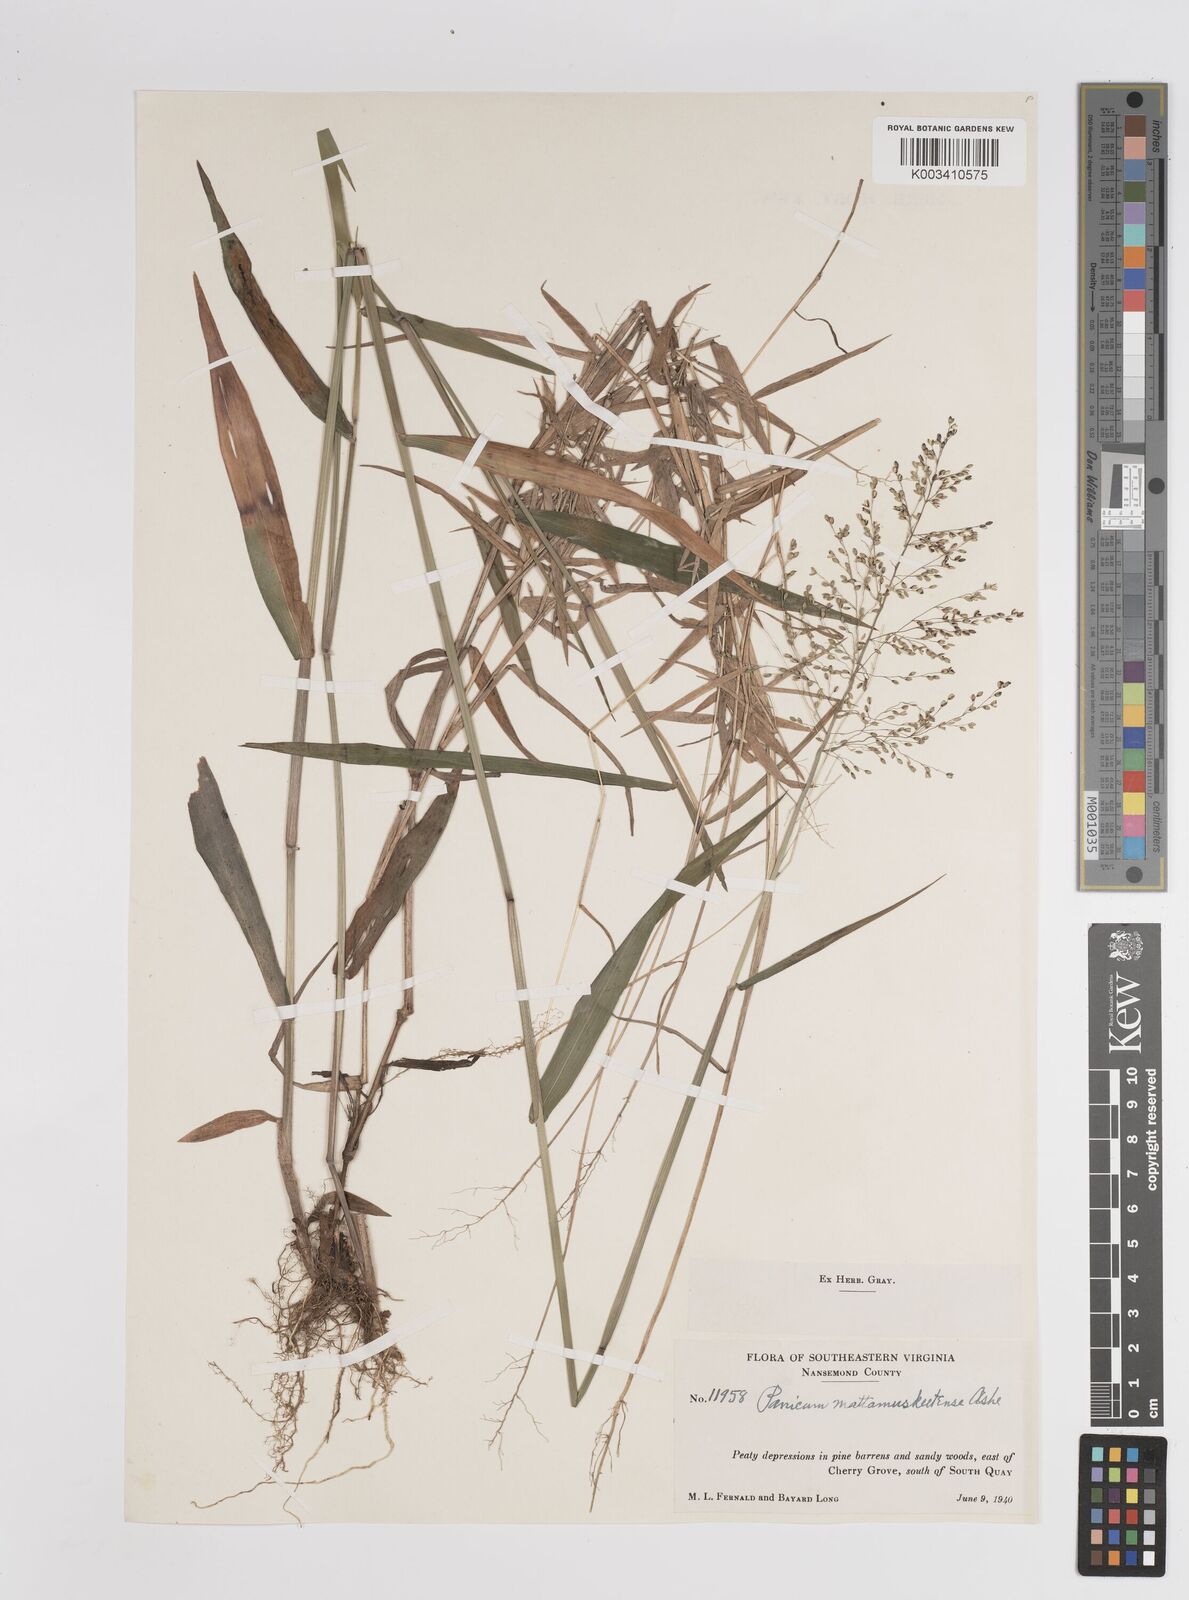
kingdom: Plantae
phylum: Tracheophyta
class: Liliopsida
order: Poales
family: Poaceae
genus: Dichanthelium
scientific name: Dichanthelium dichotomum
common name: Cypress panicgrass
